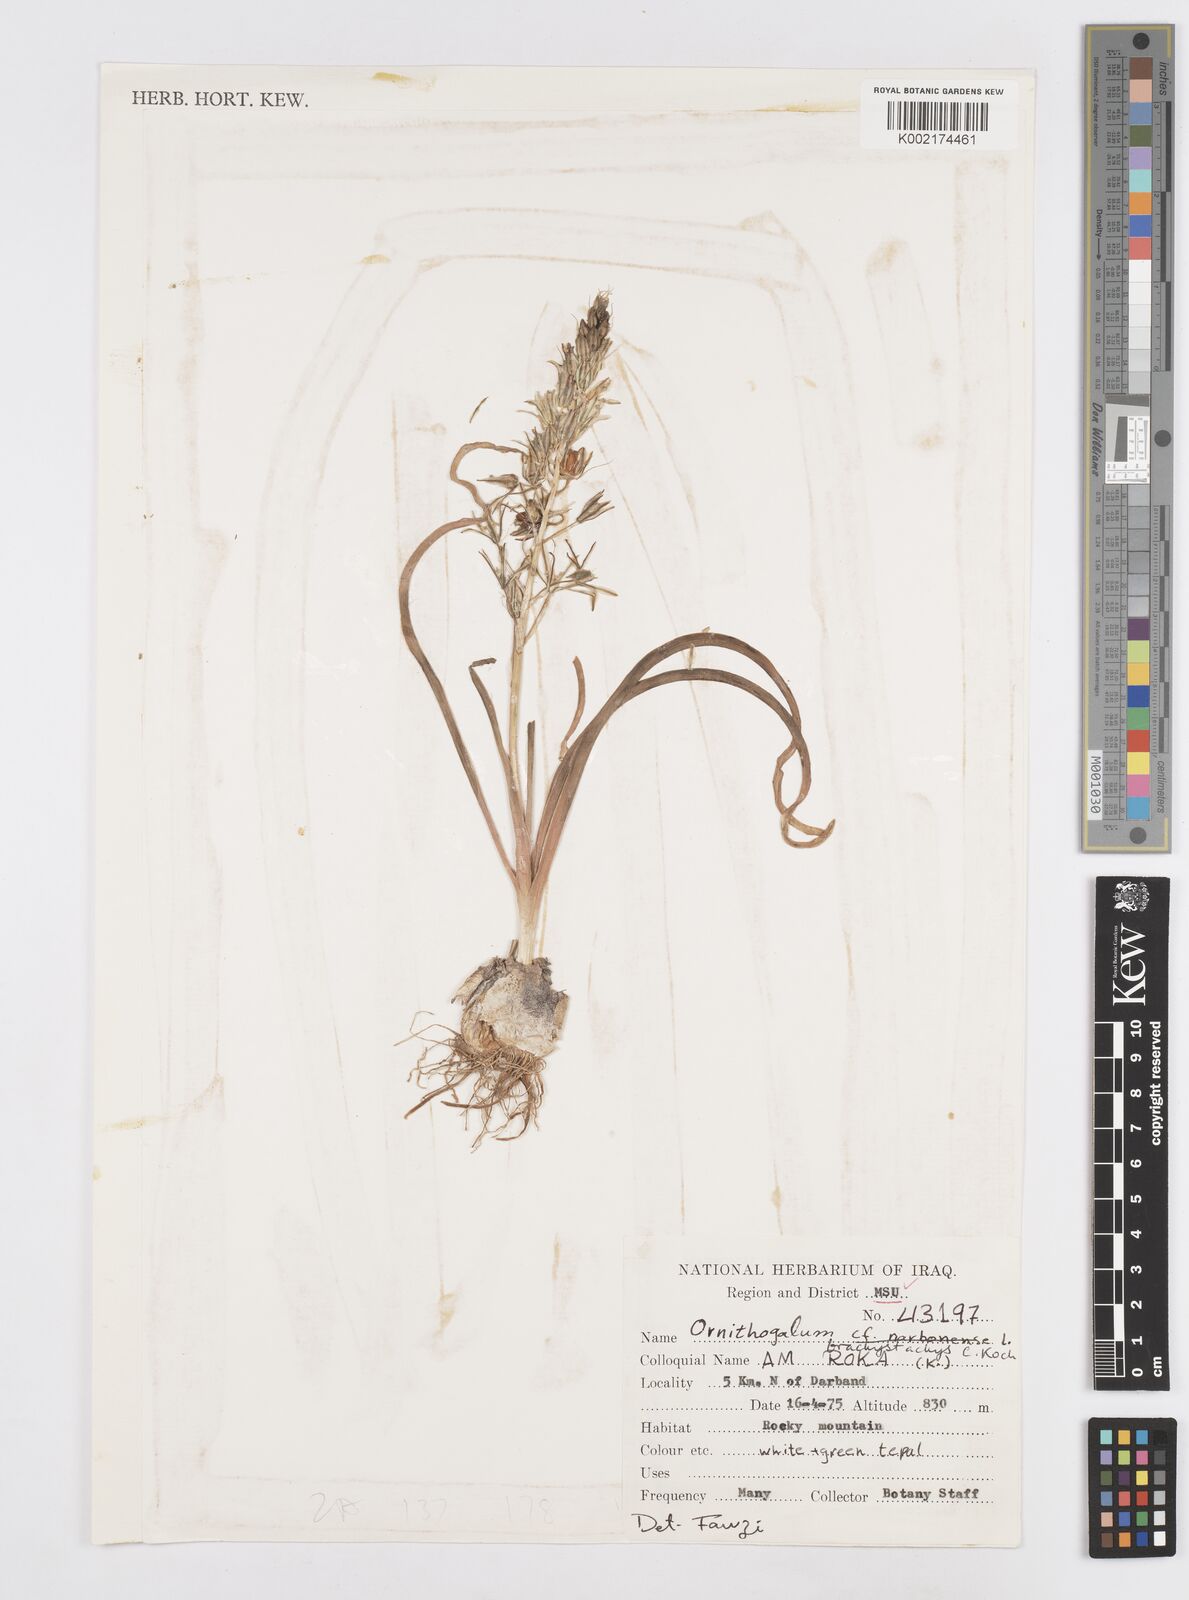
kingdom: Plantae
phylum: Tracheophyta
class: Liliopsida
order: Asparagales
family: Asparagaceae
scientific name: Asparagaceae
